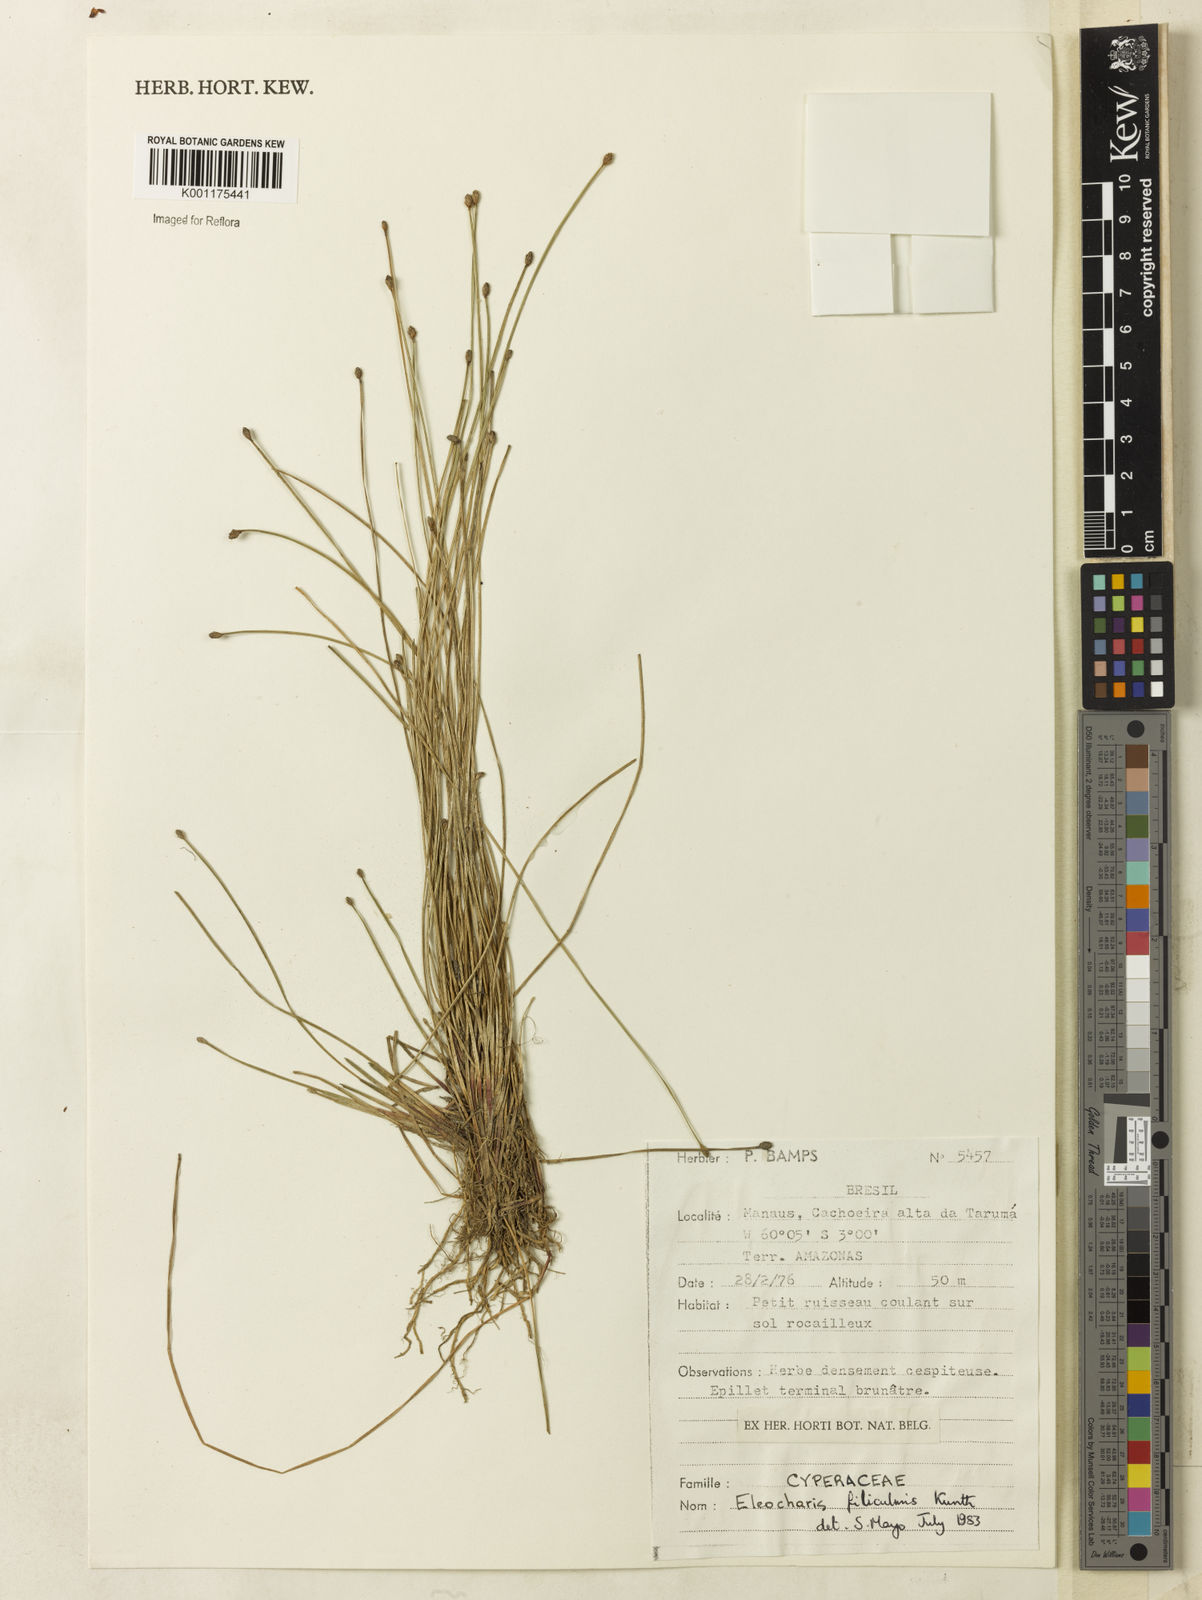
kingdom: Plantae
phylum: Tracheophyta
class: Liliopsida
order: Poales
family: Cyperaceae
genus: Eleocharis
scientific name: Eleocharis filiculmis
